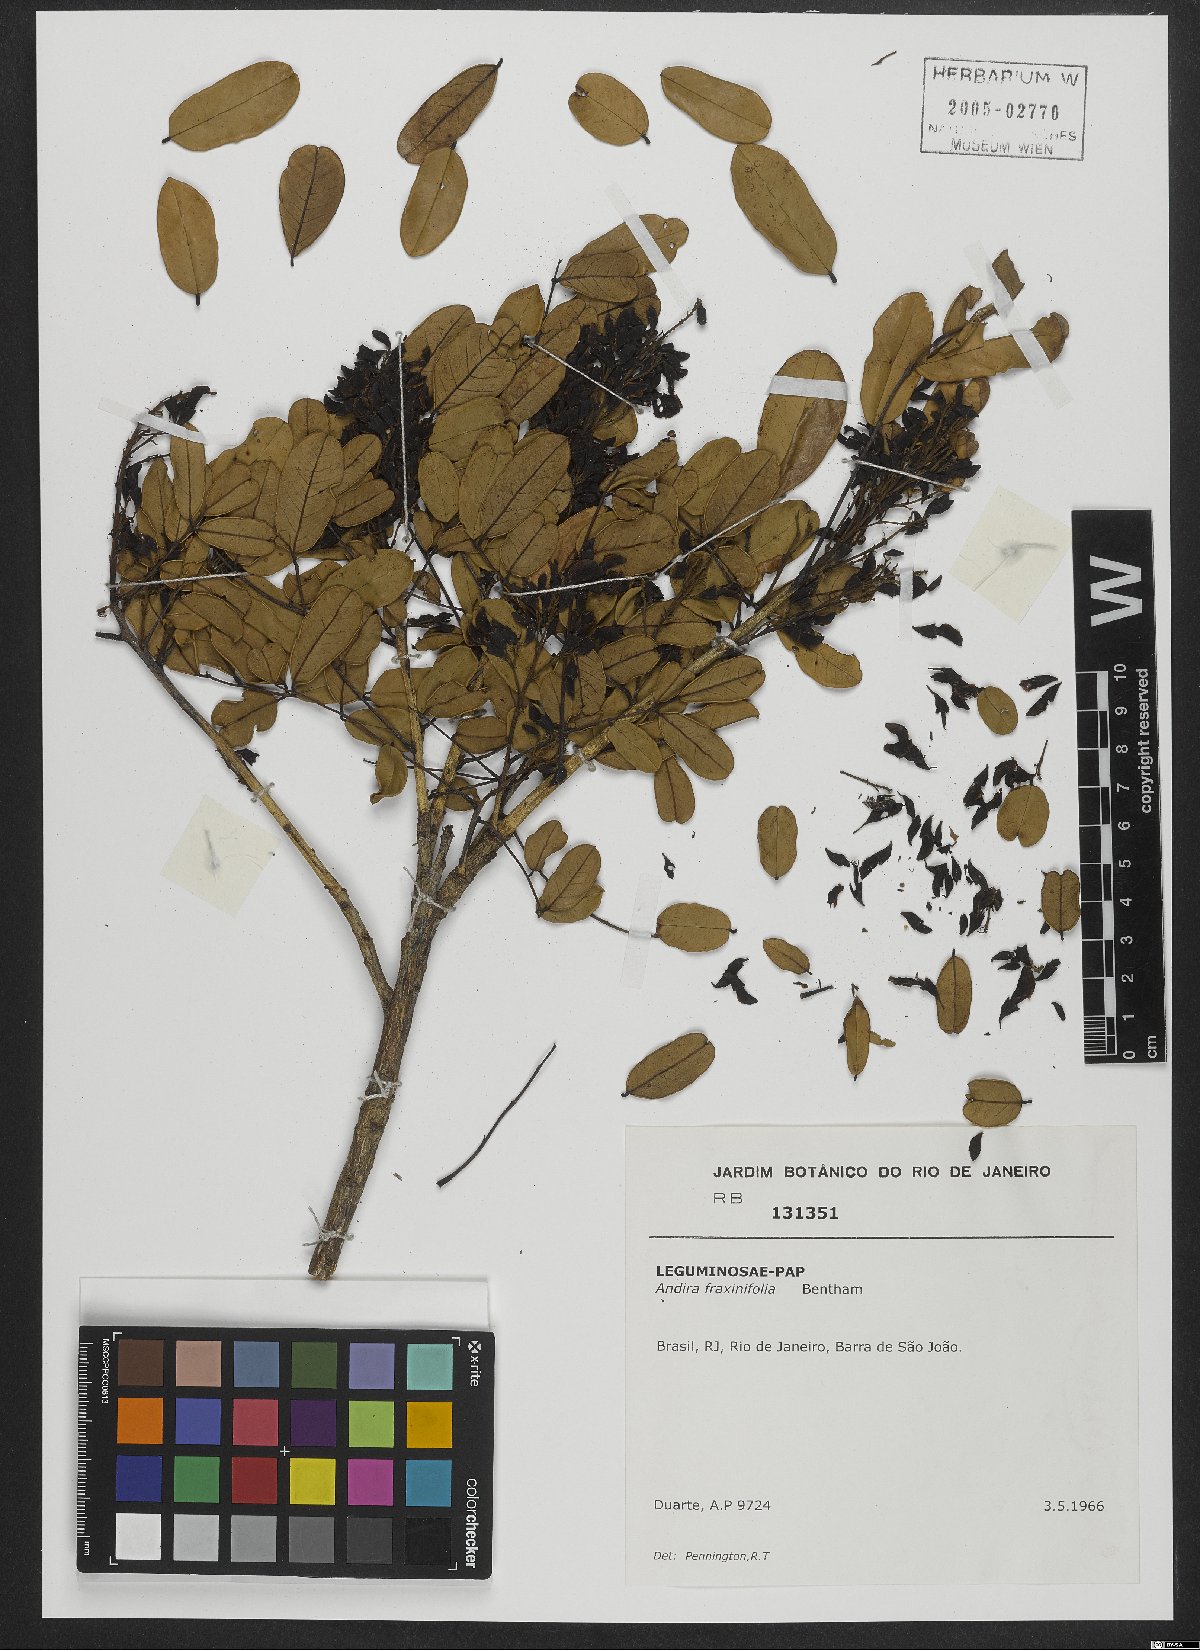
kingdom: Plantae
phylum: Tracheophyta
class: Magnoliopsida
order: Fabales
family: Fabaceae
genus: Andira
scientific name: Andira fraxinifolia
